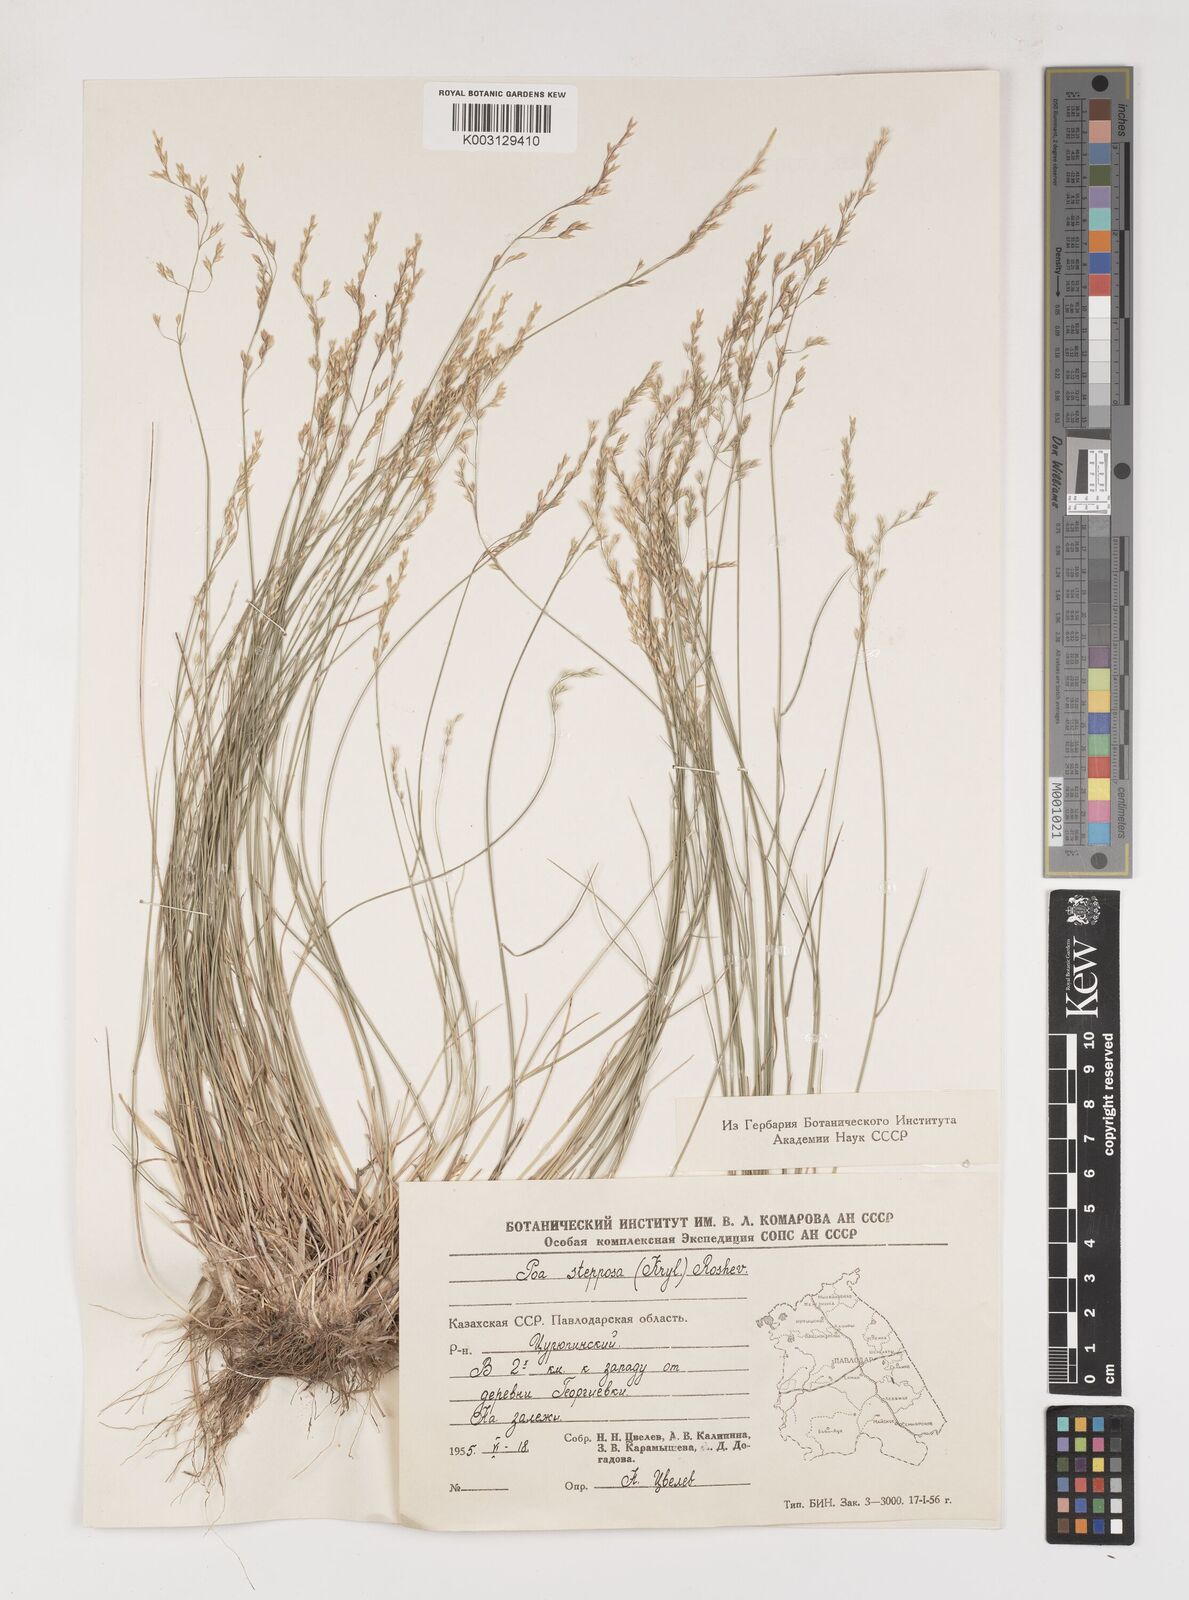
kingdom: Plantae
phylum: Tracheophyta
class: Liliopsida
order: Poales
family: Poaceae
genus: Poa
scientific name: Poa versicolor
